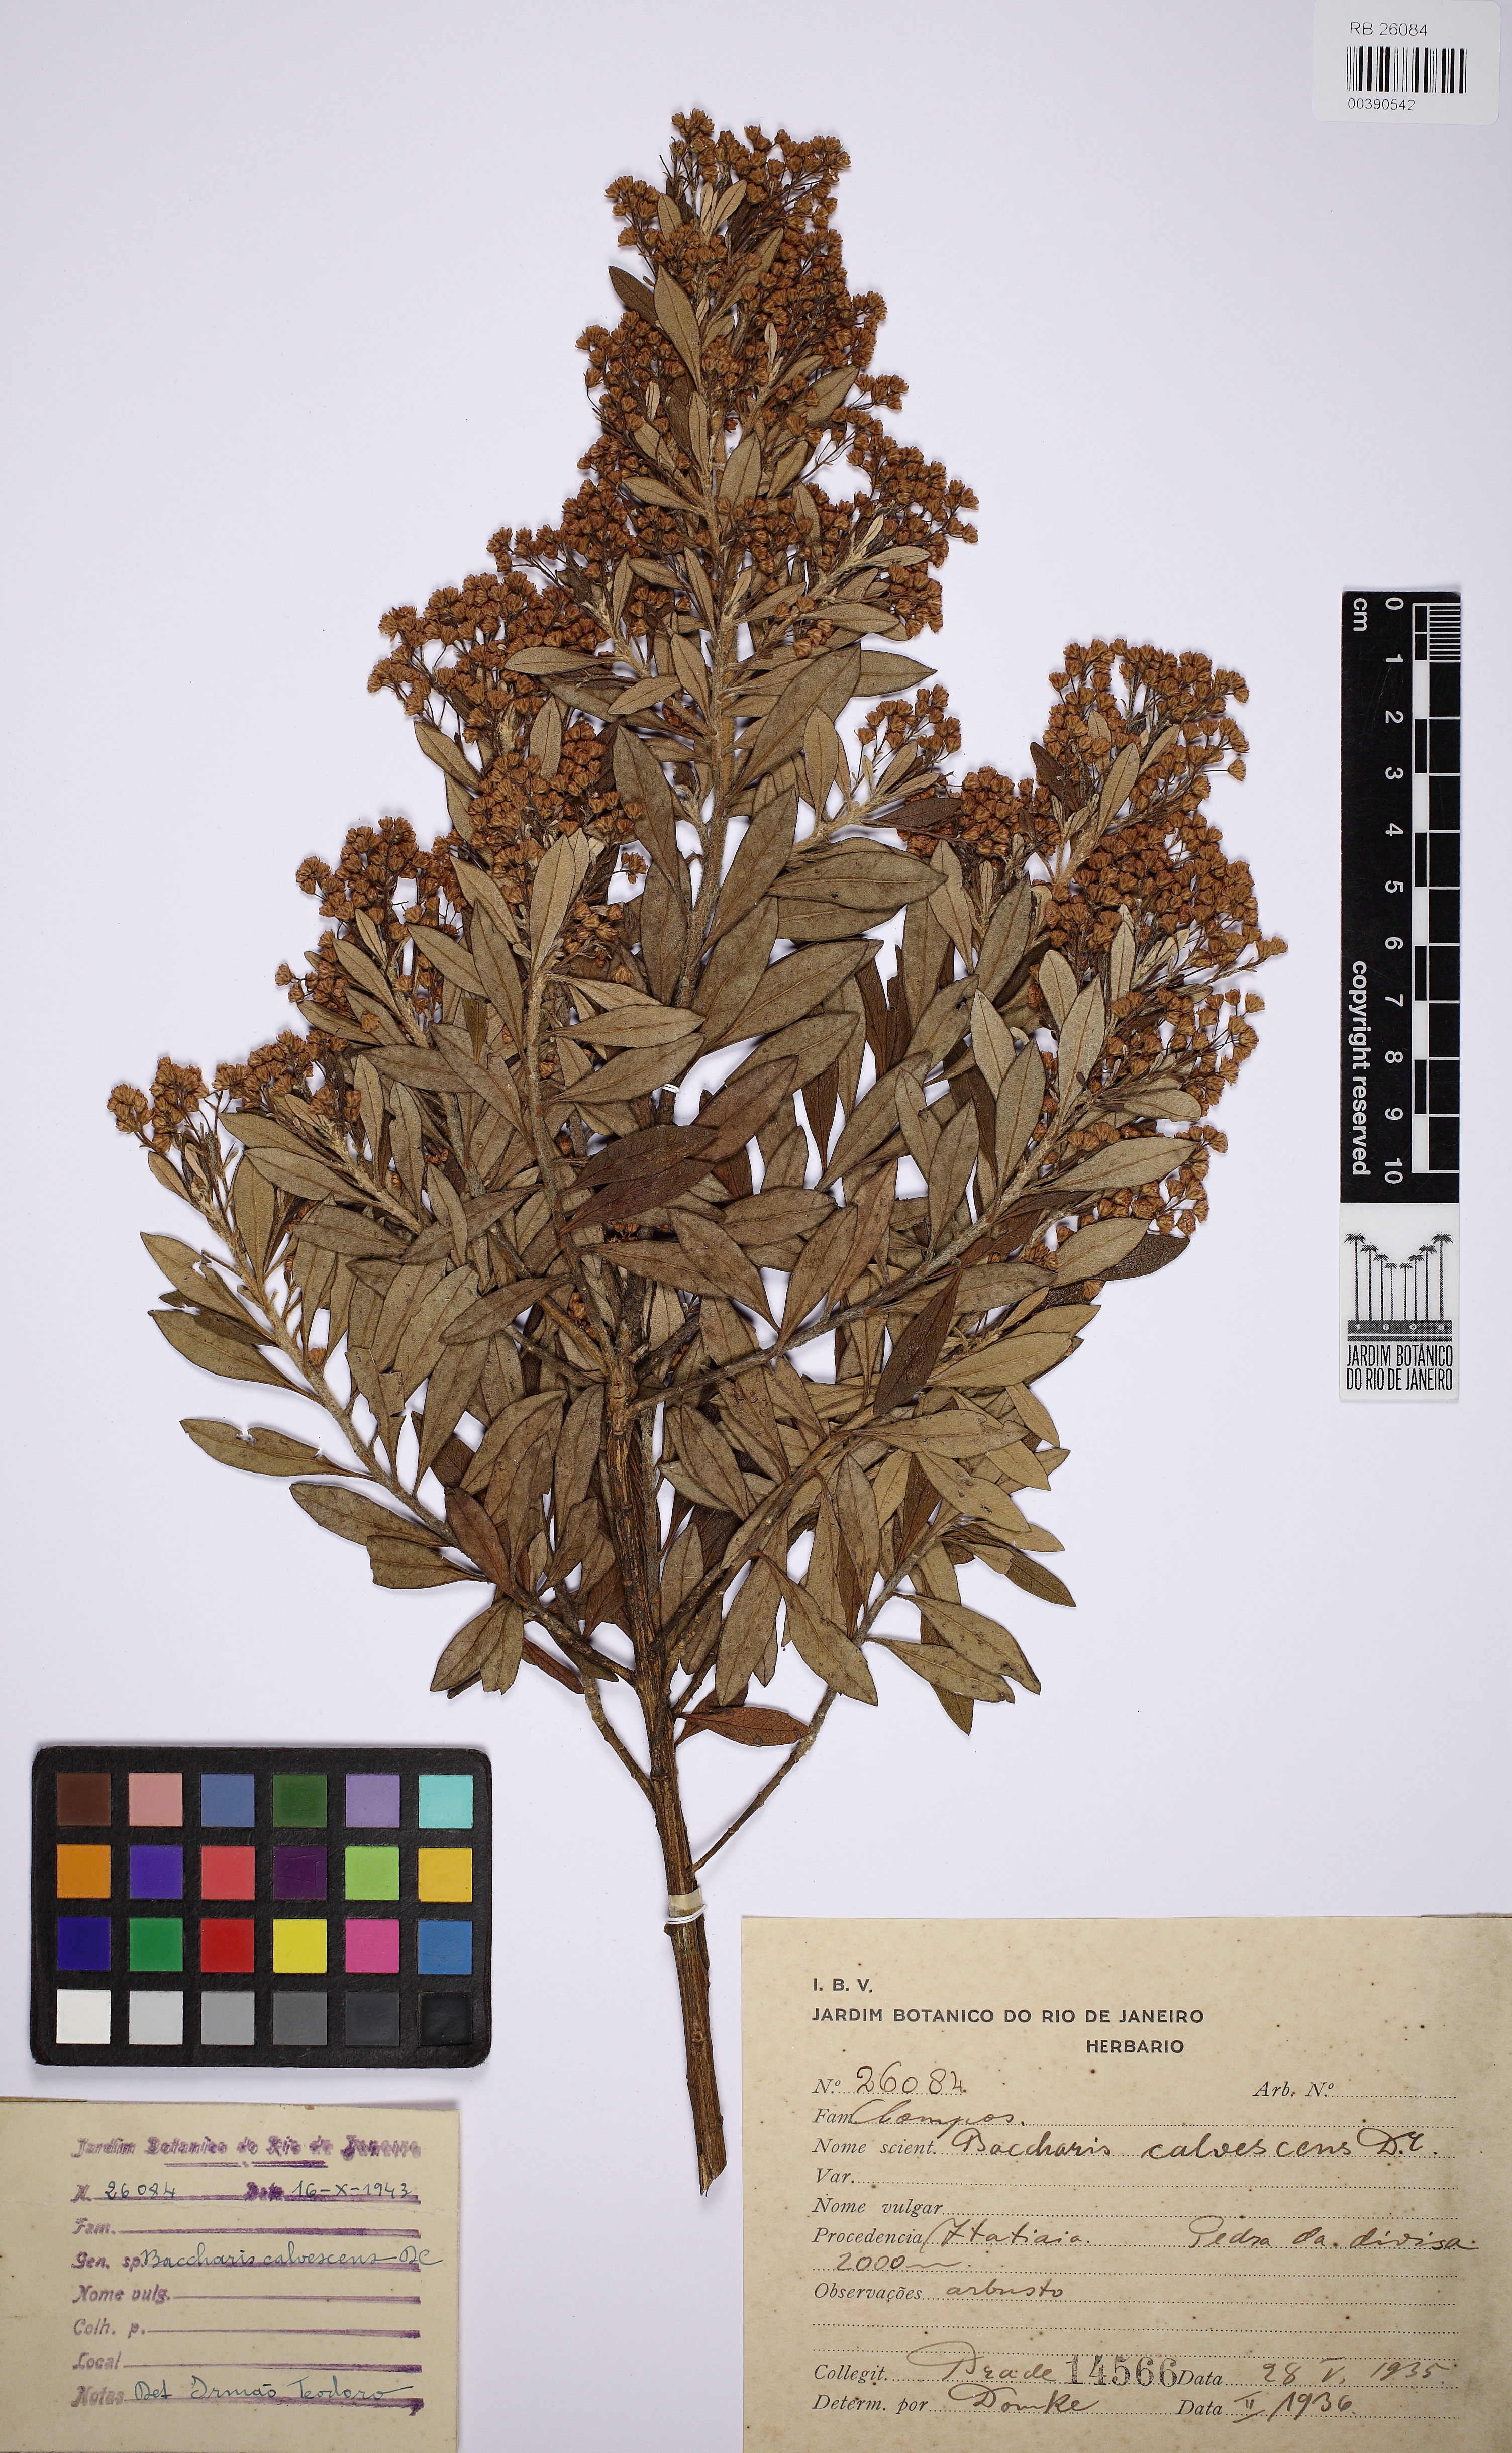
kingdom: Plantae
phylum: Tracheophyta
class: Magnoliopsida
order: Asterales
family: Asteraceae
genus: Baccharis
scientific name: Baccharis calvescens
